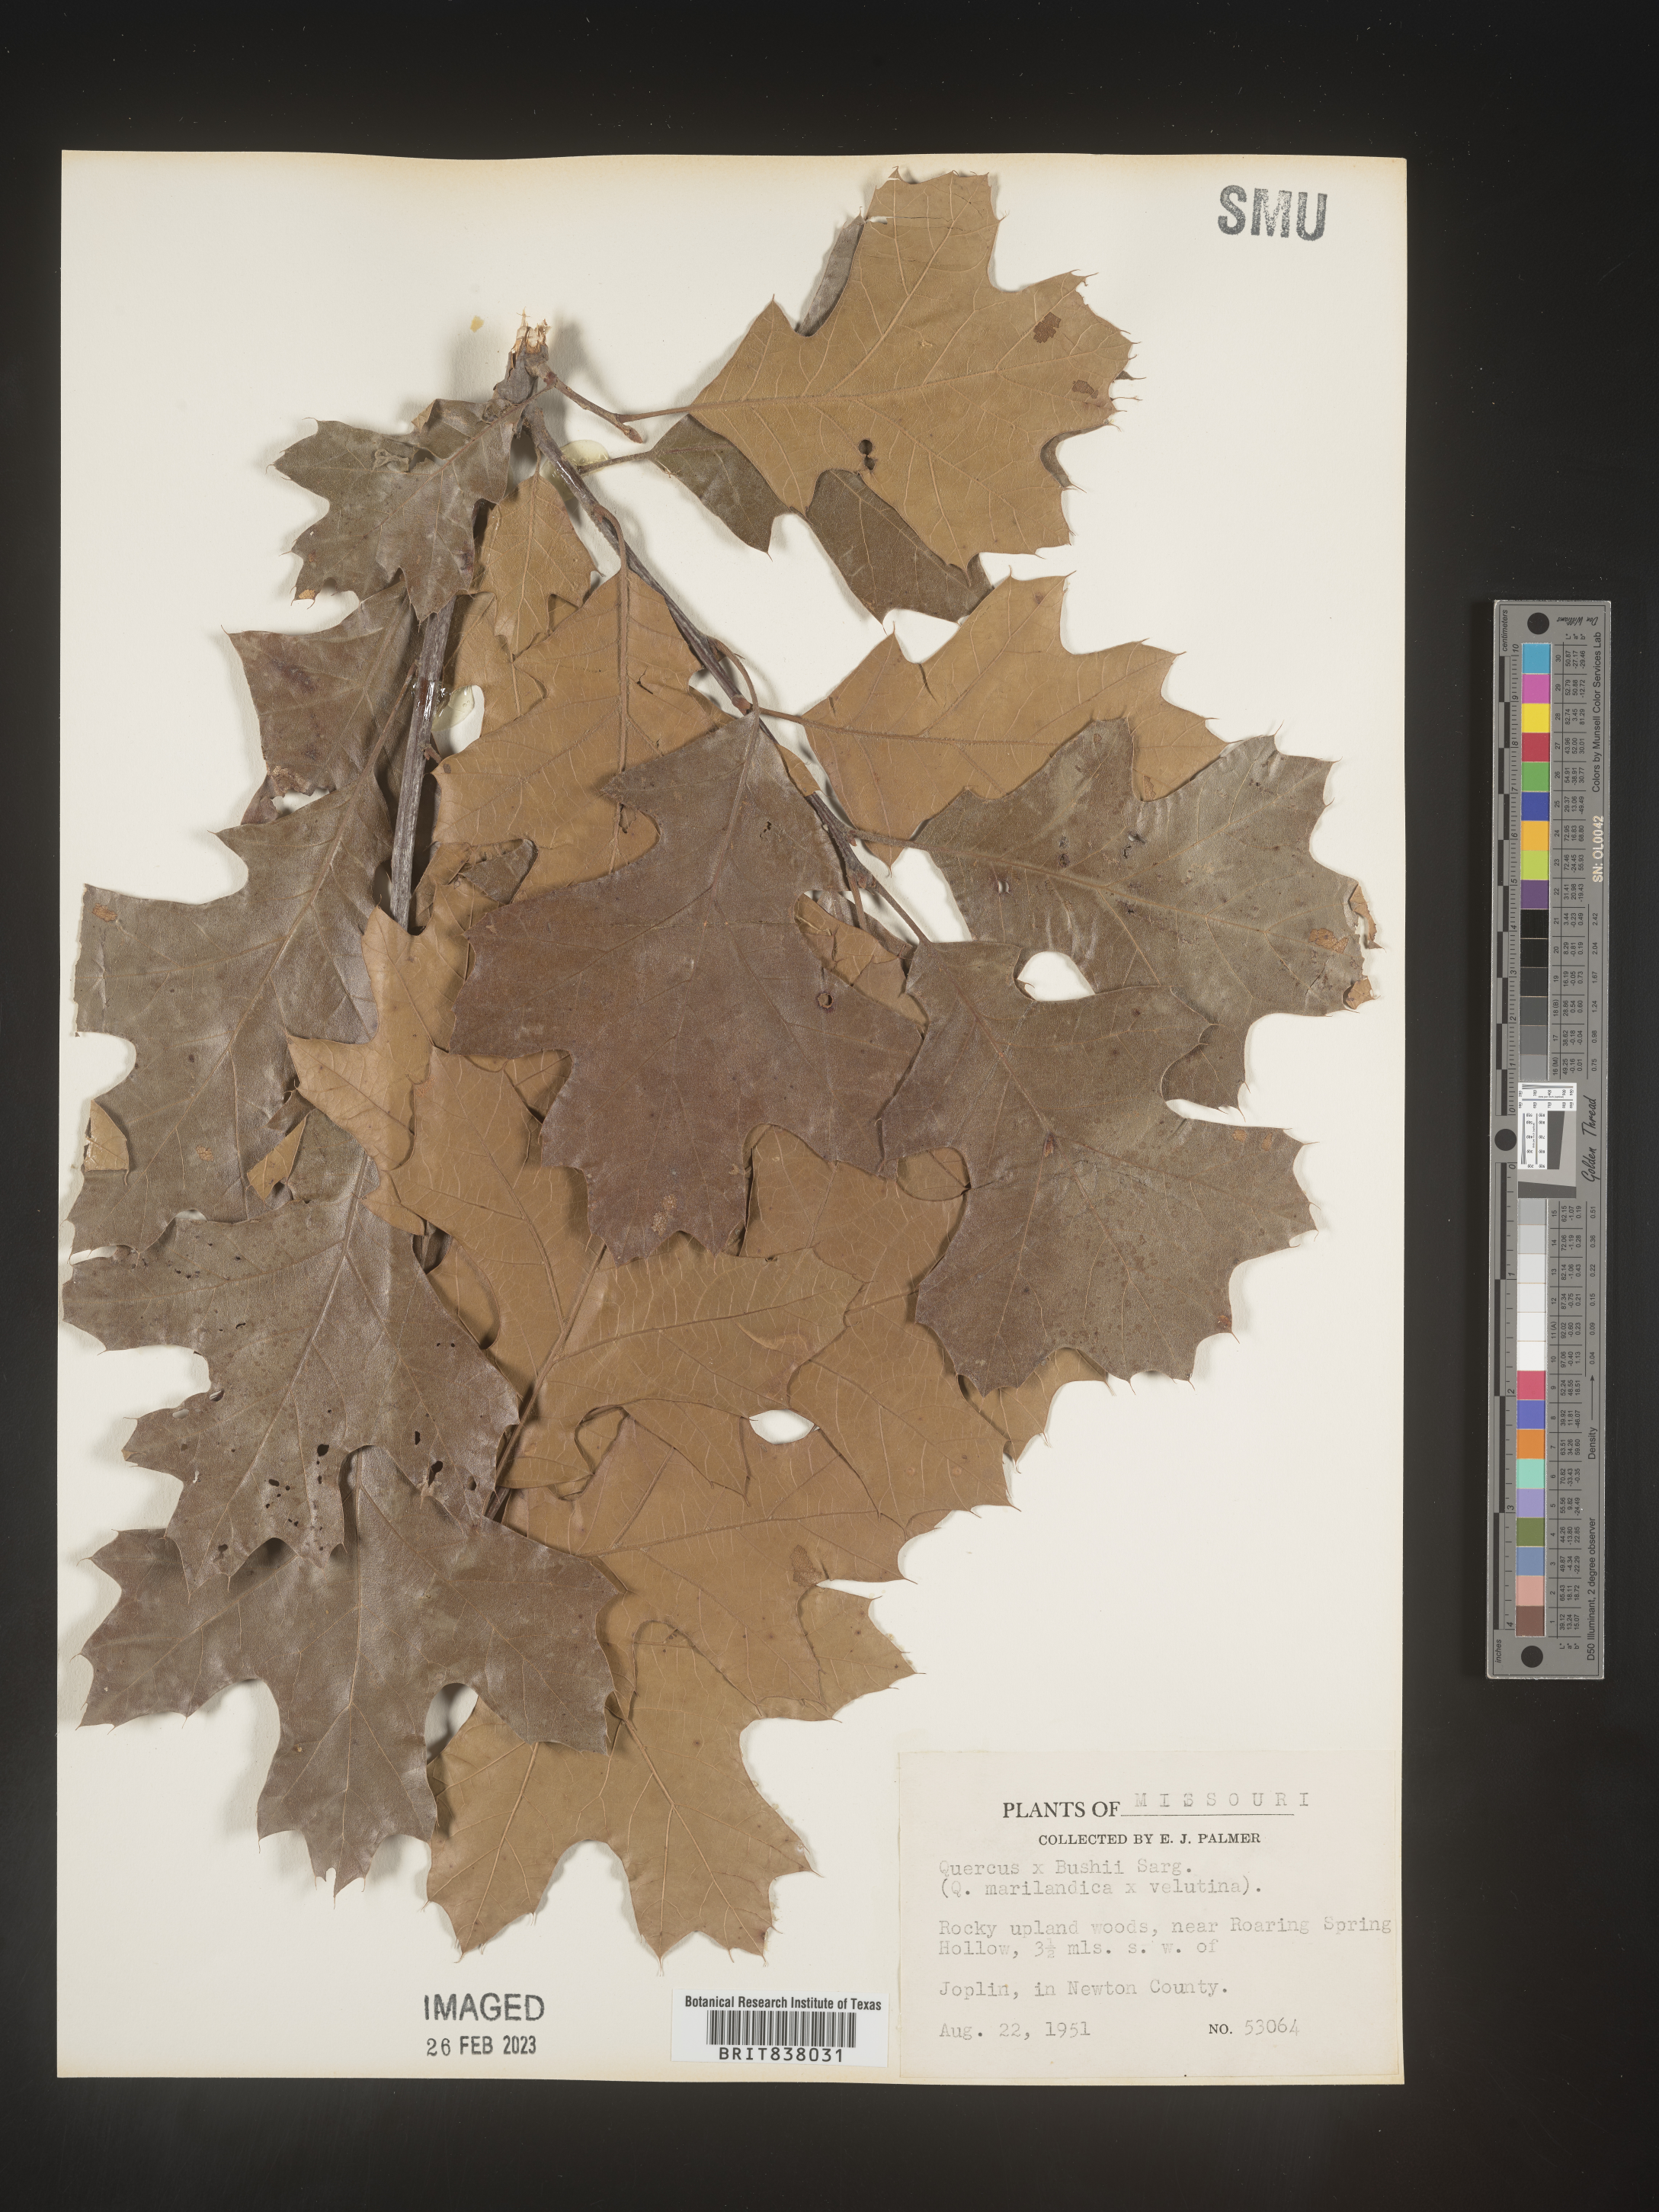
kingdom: Plantae
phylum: Tracheophyta
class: Magnoliopsida
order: Fagales
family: Fagaceae
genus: Quercus
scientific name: Quercus
